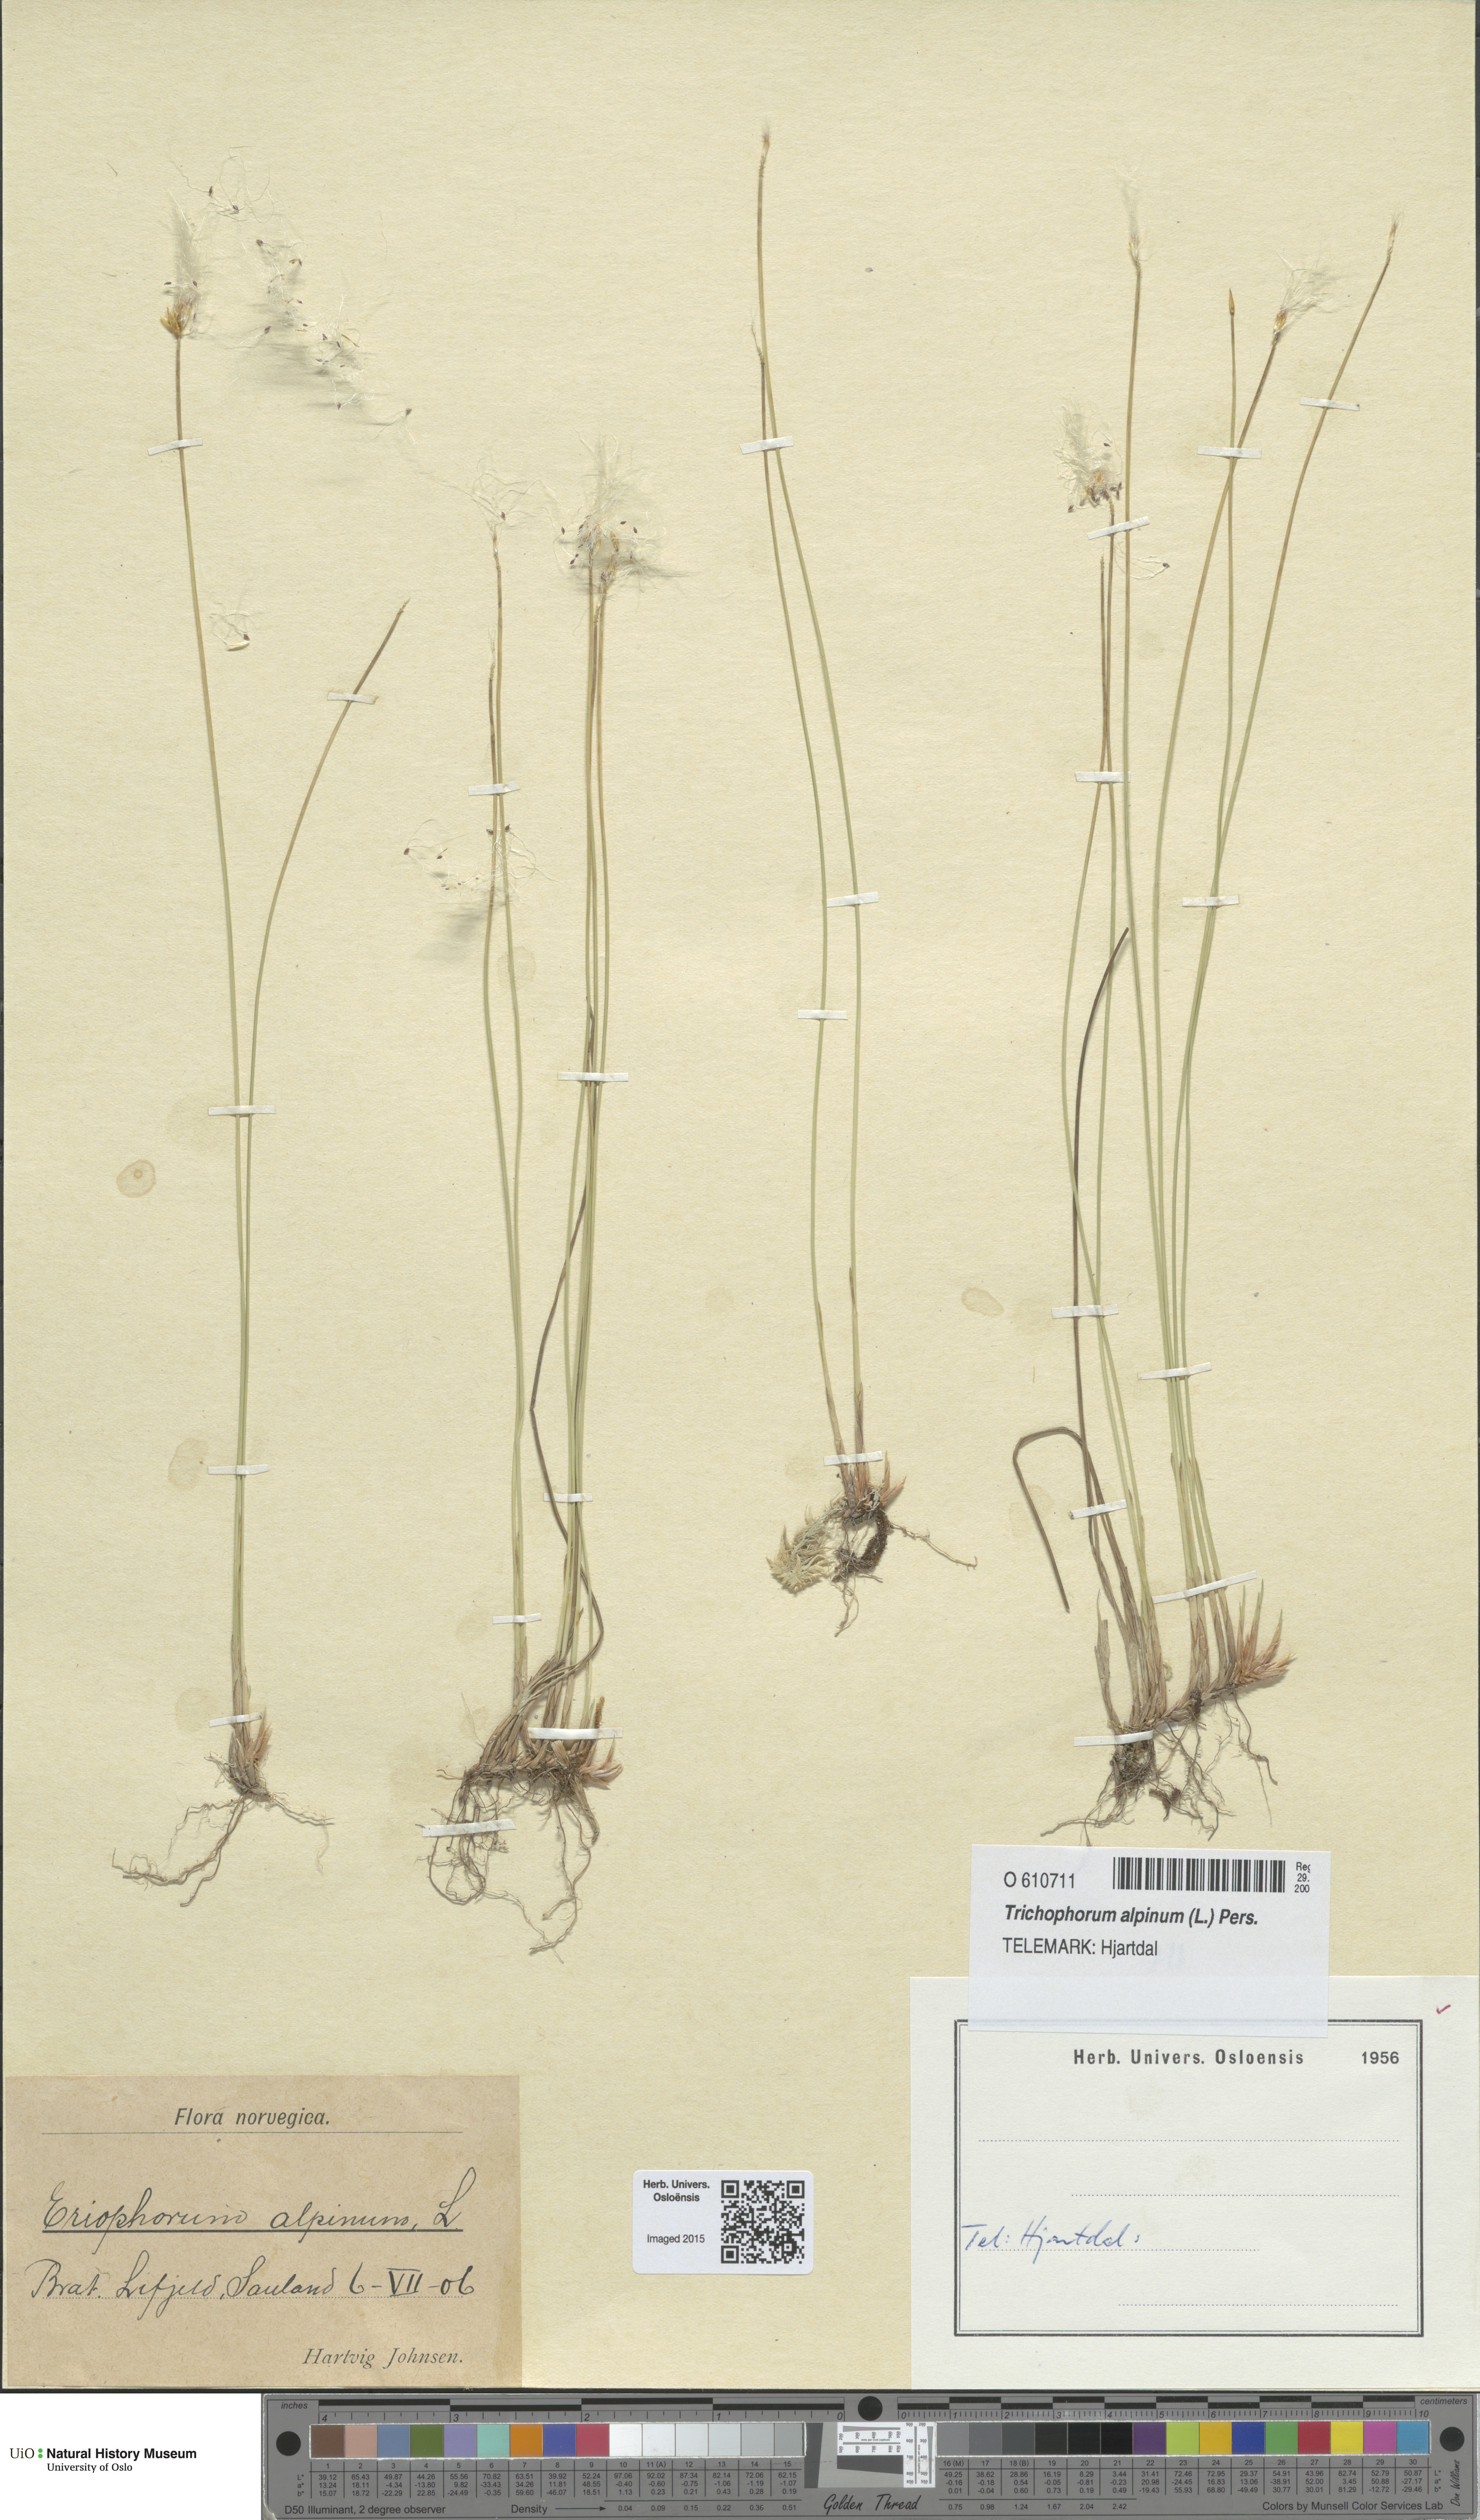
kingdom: Plantae
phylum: Tracheophyta
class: Liliopsida
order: Poales
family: Cyperaceae
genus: Trichophorum
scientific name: Trichophorum alpinum
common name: Alpine bulrush
